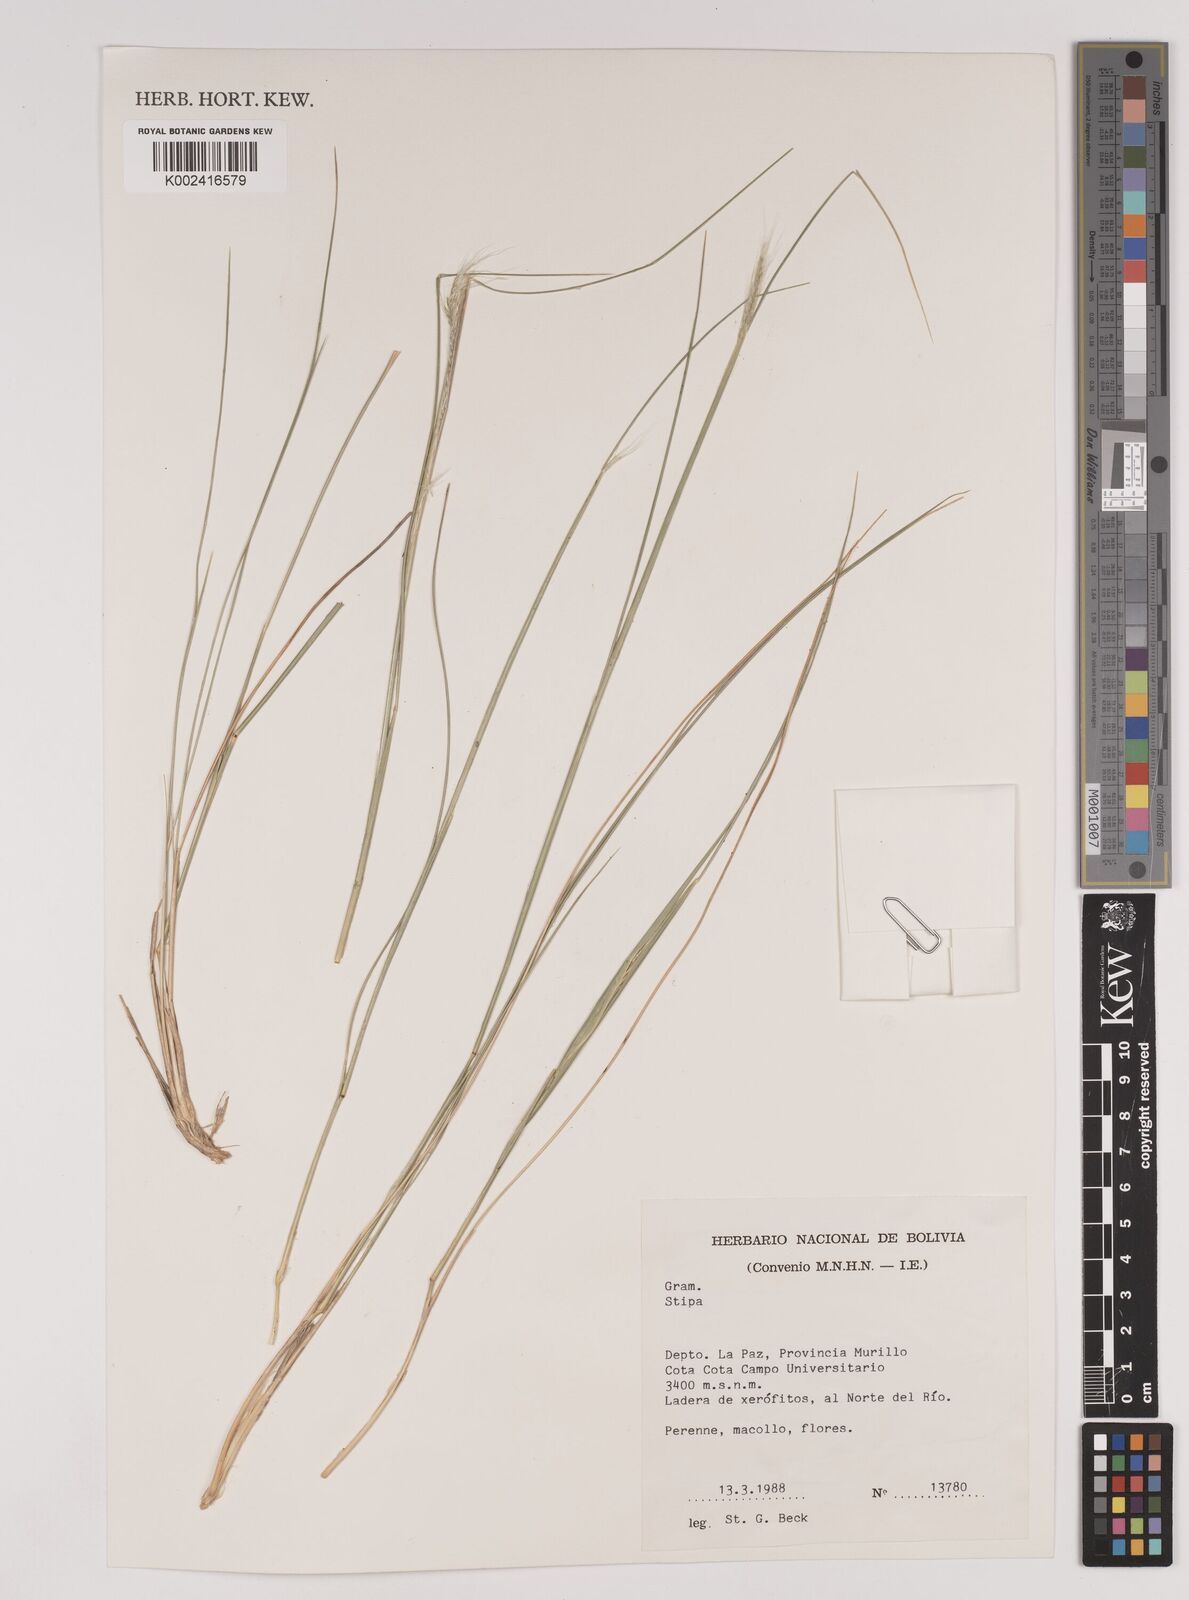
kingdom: Plantae
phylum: Tracheophyta
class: Liliopsida
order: Poales
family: Poaceae
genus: Jarava
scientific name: Jarava leptostachya
